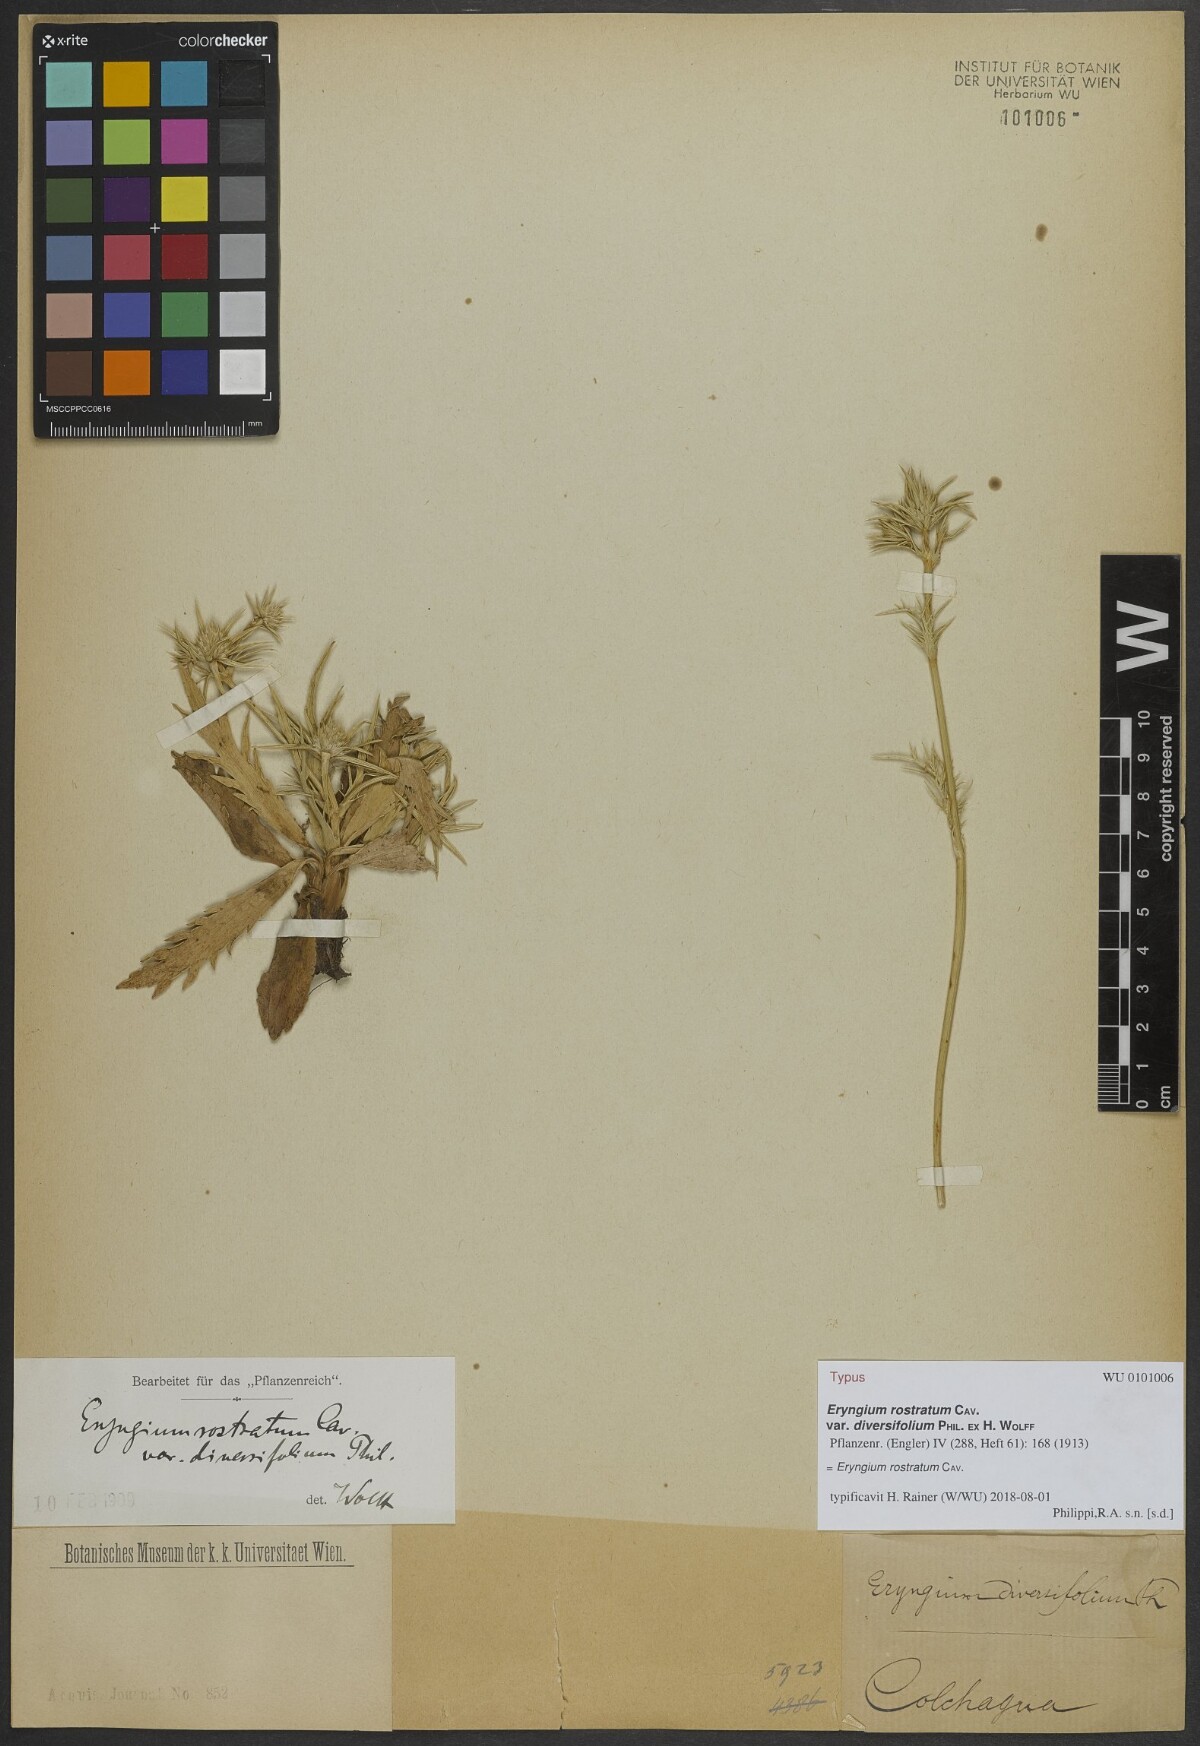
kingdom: Plantae
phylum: Tracheophyta
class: Magnoliopsida
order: Apiales
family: Apiaceae
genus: Eryngium
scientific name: Eryngium rostratum
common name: Blue eryngo
